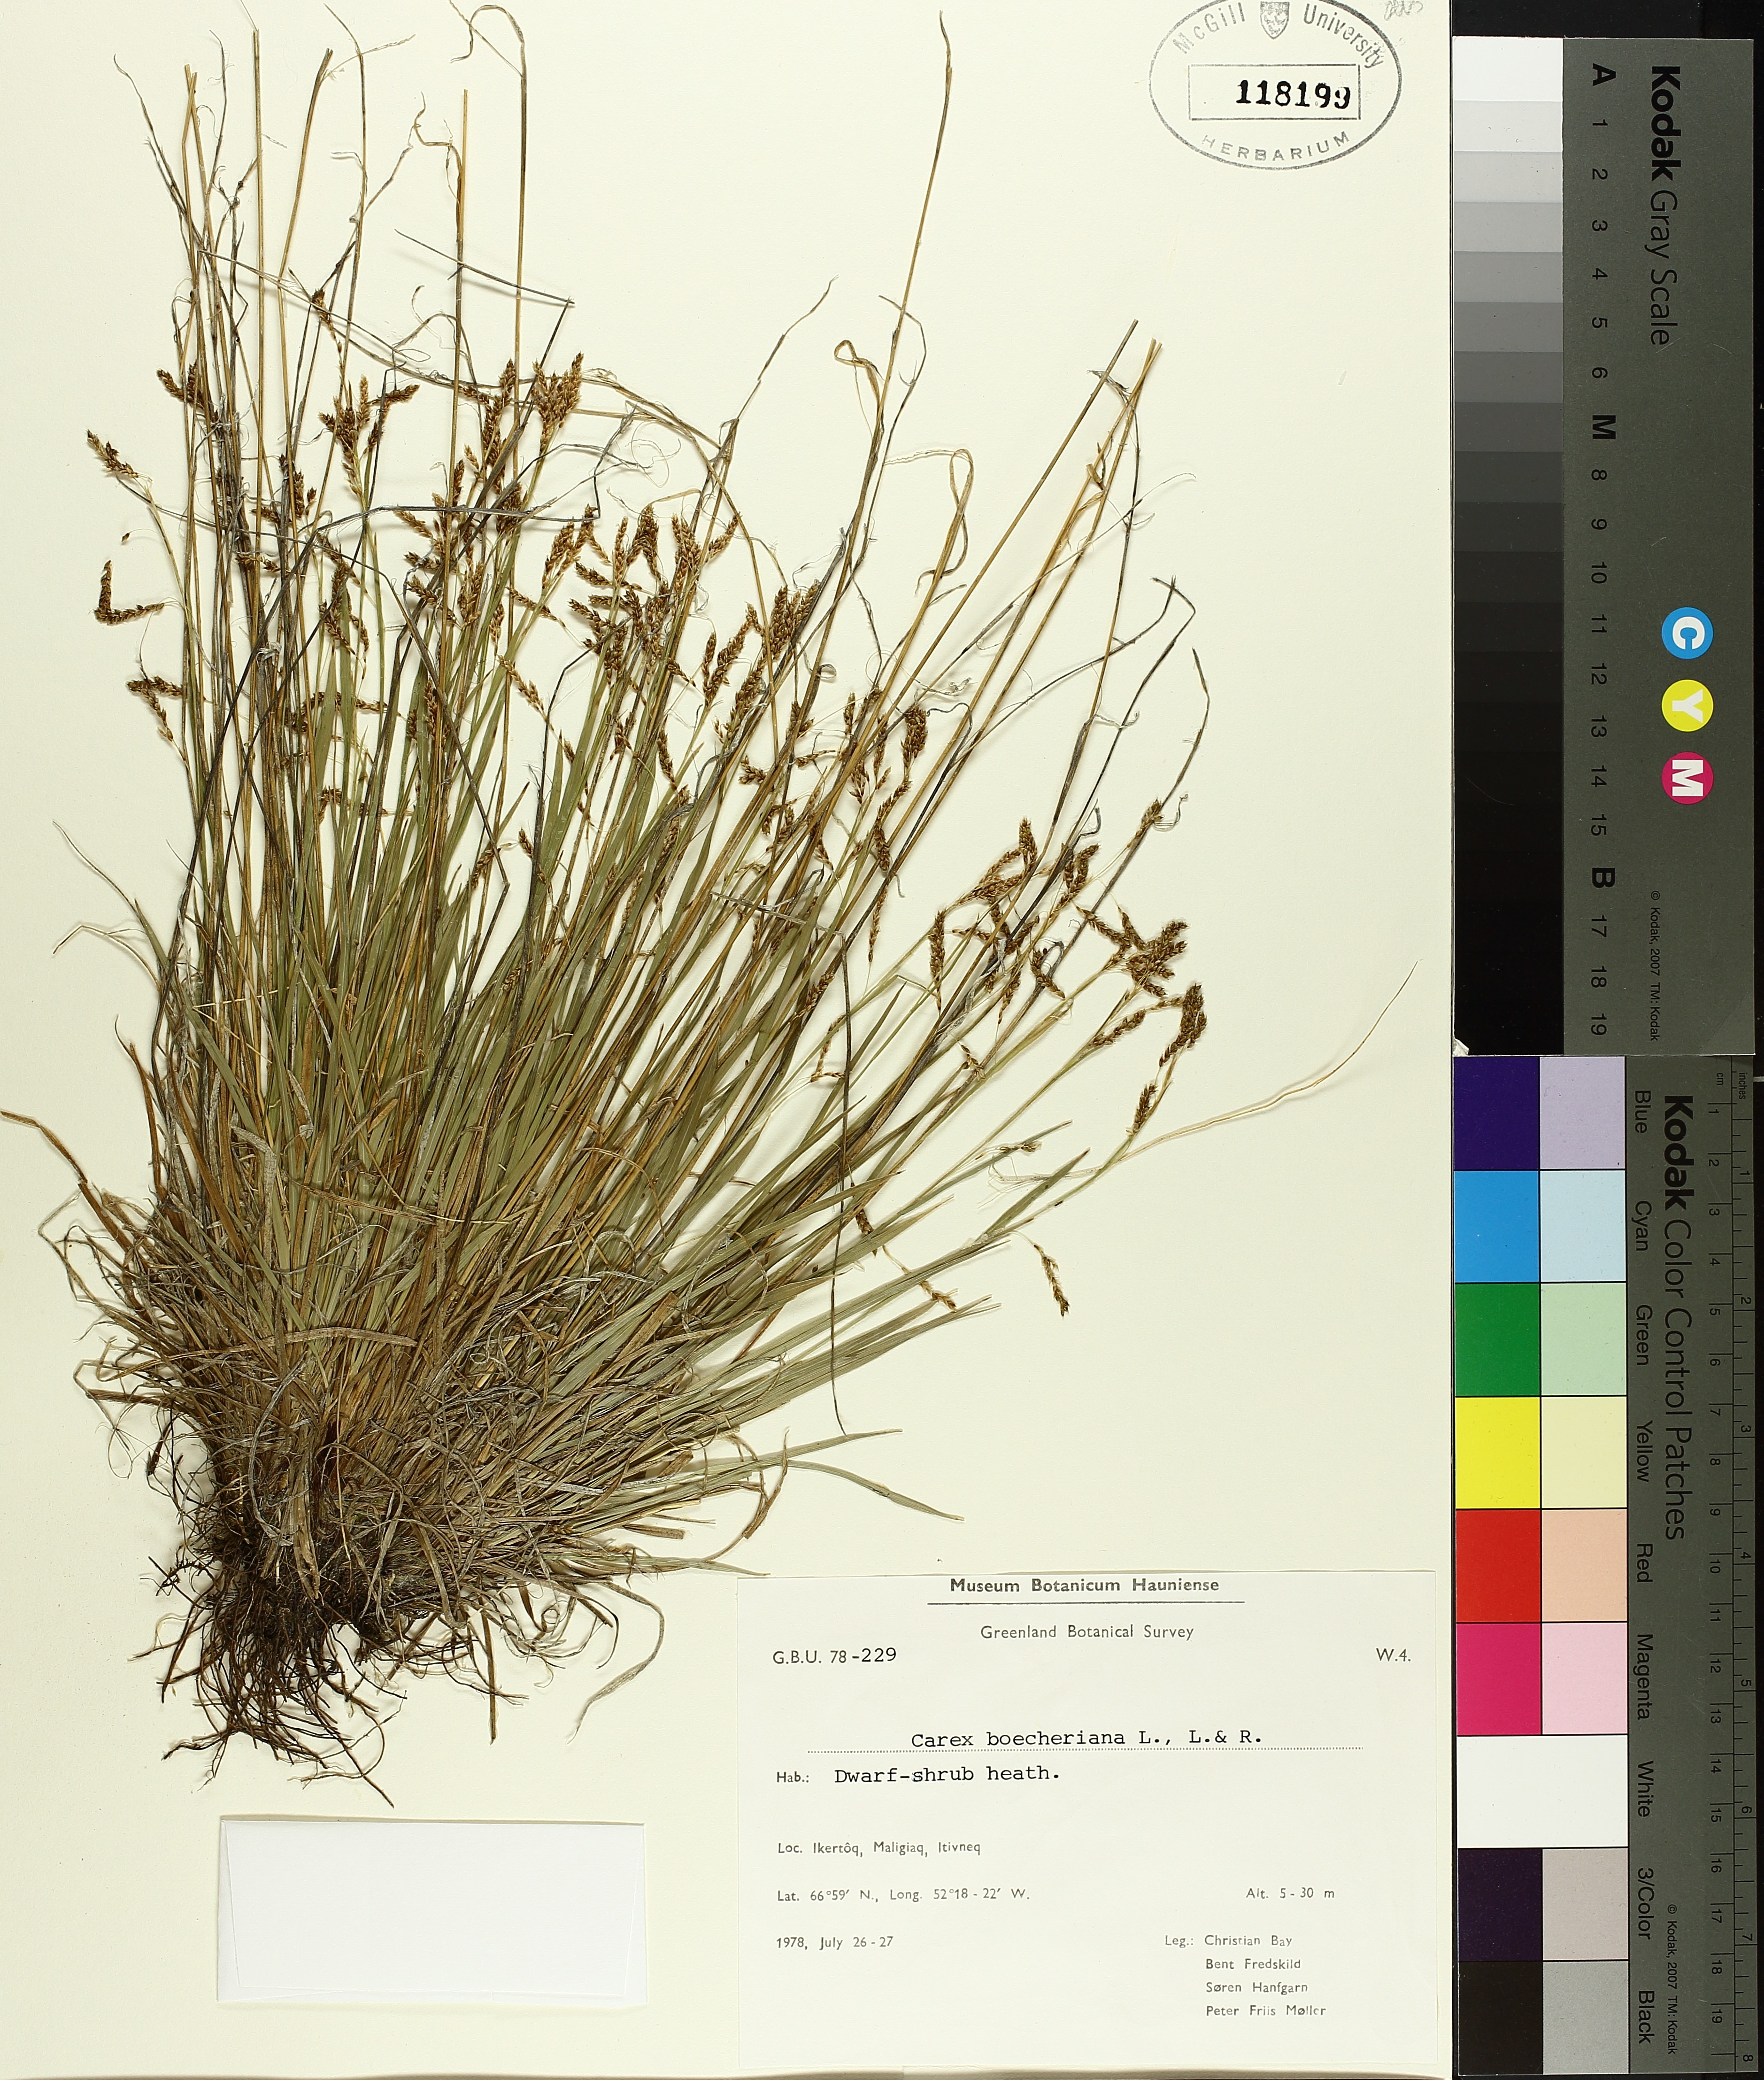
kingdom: Plantae
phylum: Tracheophyta
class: Liliopsida
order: Poales
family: Cyperaceae
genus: Carex
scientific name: Carex boecheriana
